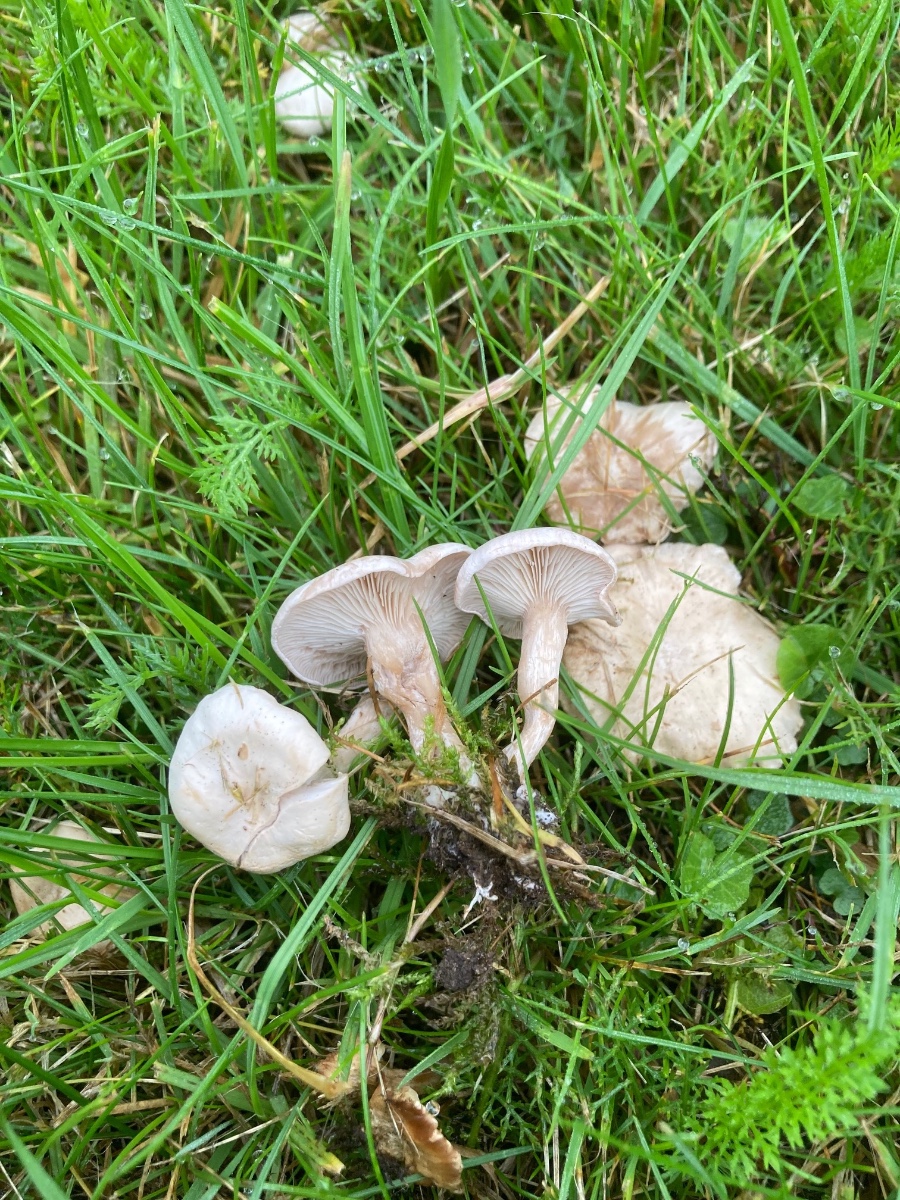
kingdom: Fungi
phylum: Basidiomycota
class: Agaricomycetes
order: Agaricales
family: Tricholomataceae
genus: Clitocybe
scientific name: Clitocybe rivulosa
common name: eng-tragthat
